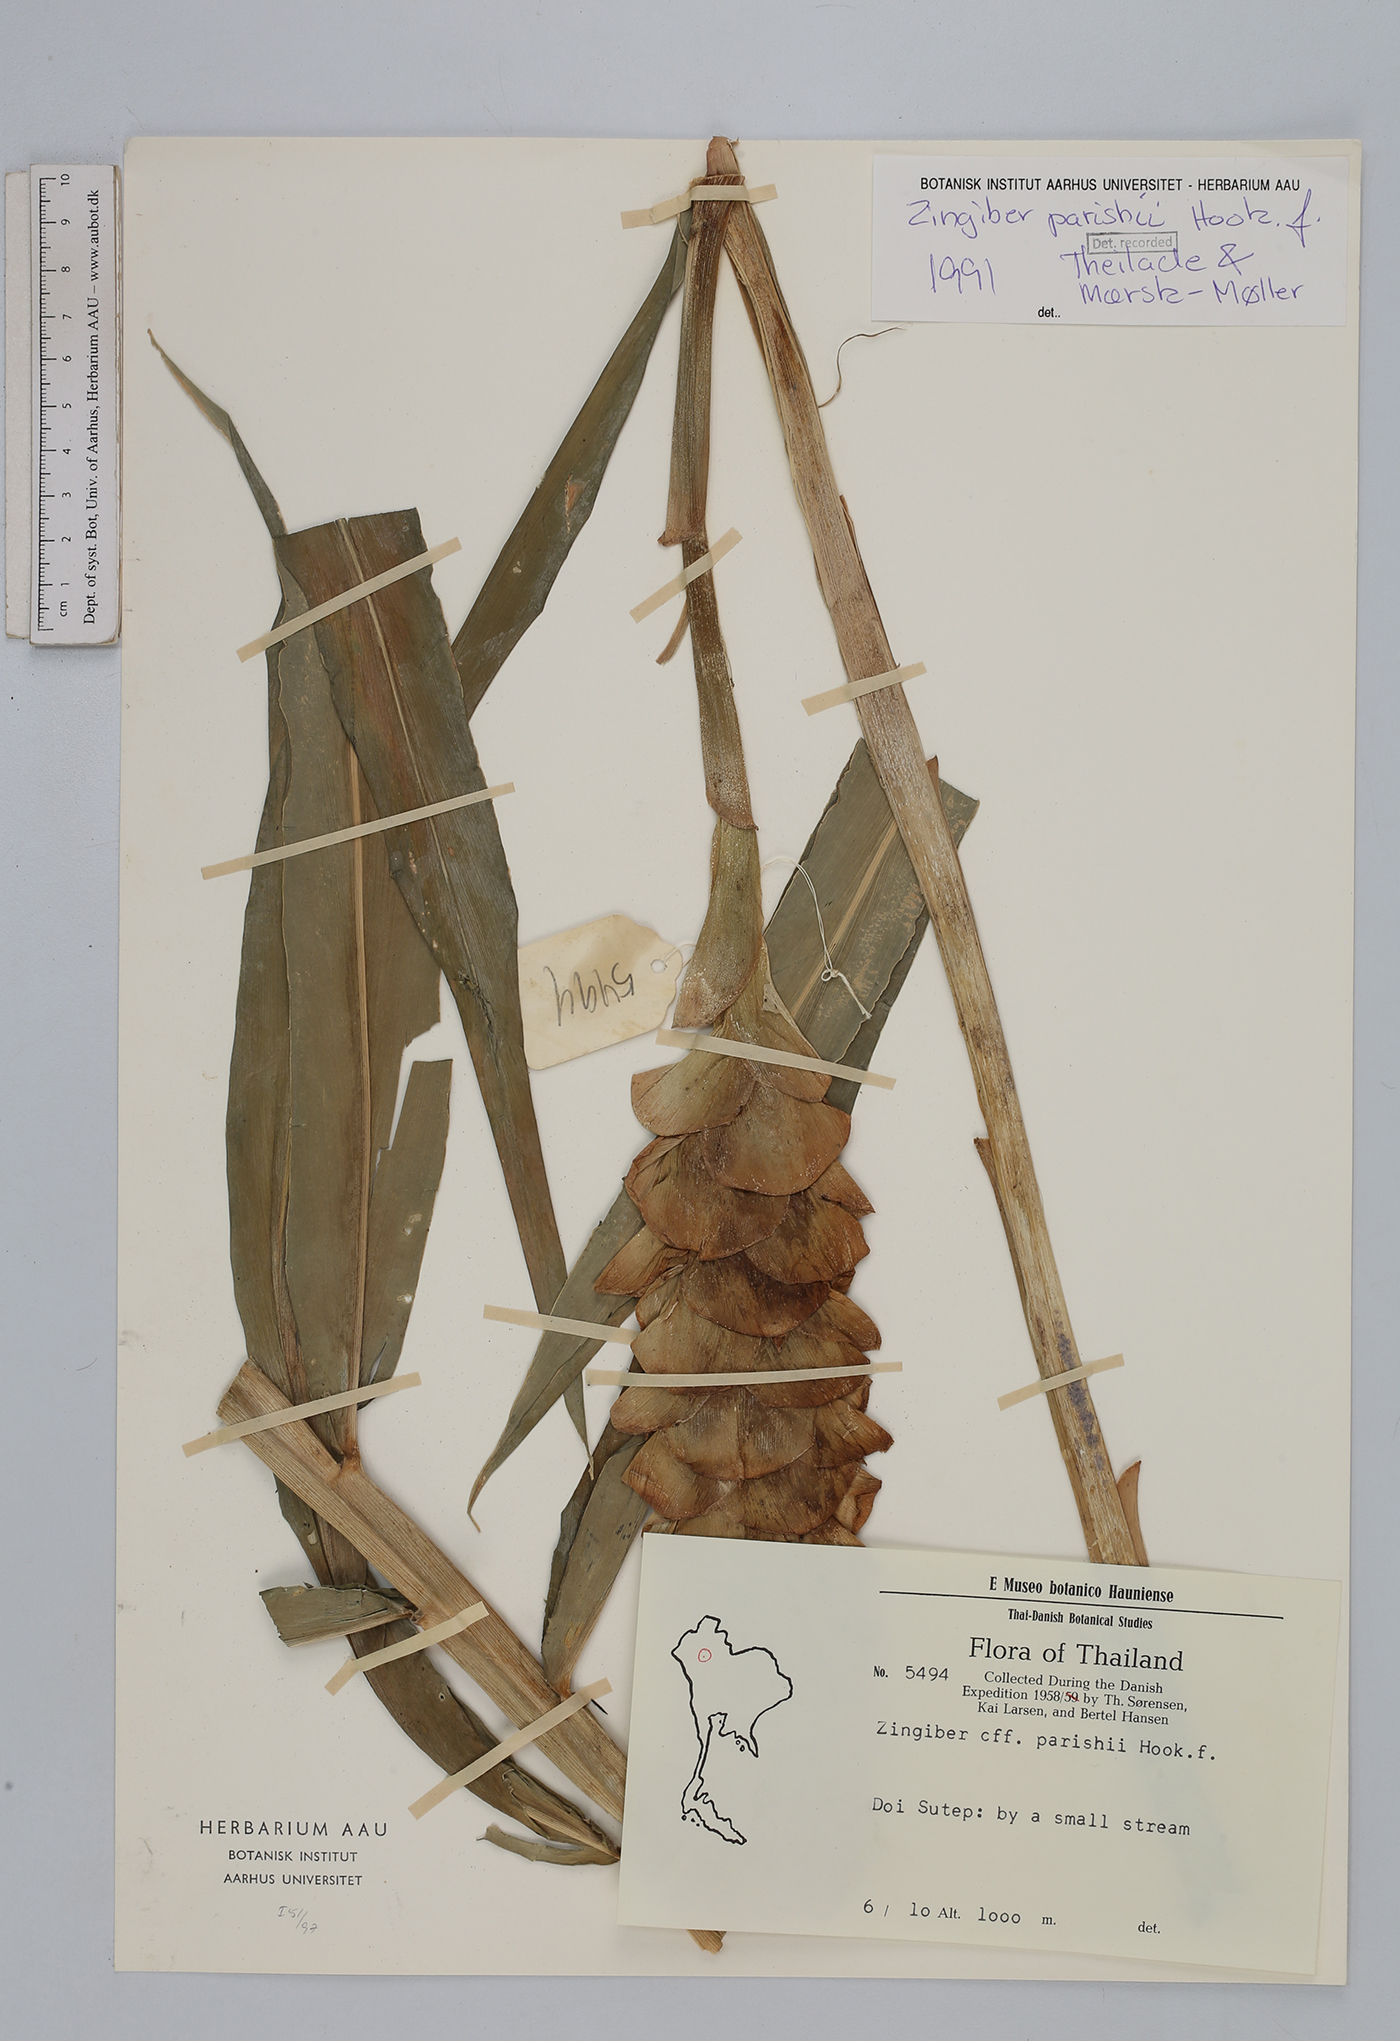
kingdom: Plantae
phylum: Tracheophyta
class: Liliopsida
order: Zingiberales
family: Zingiberaceae
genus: Zingiber
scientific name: Zingiber parishii
